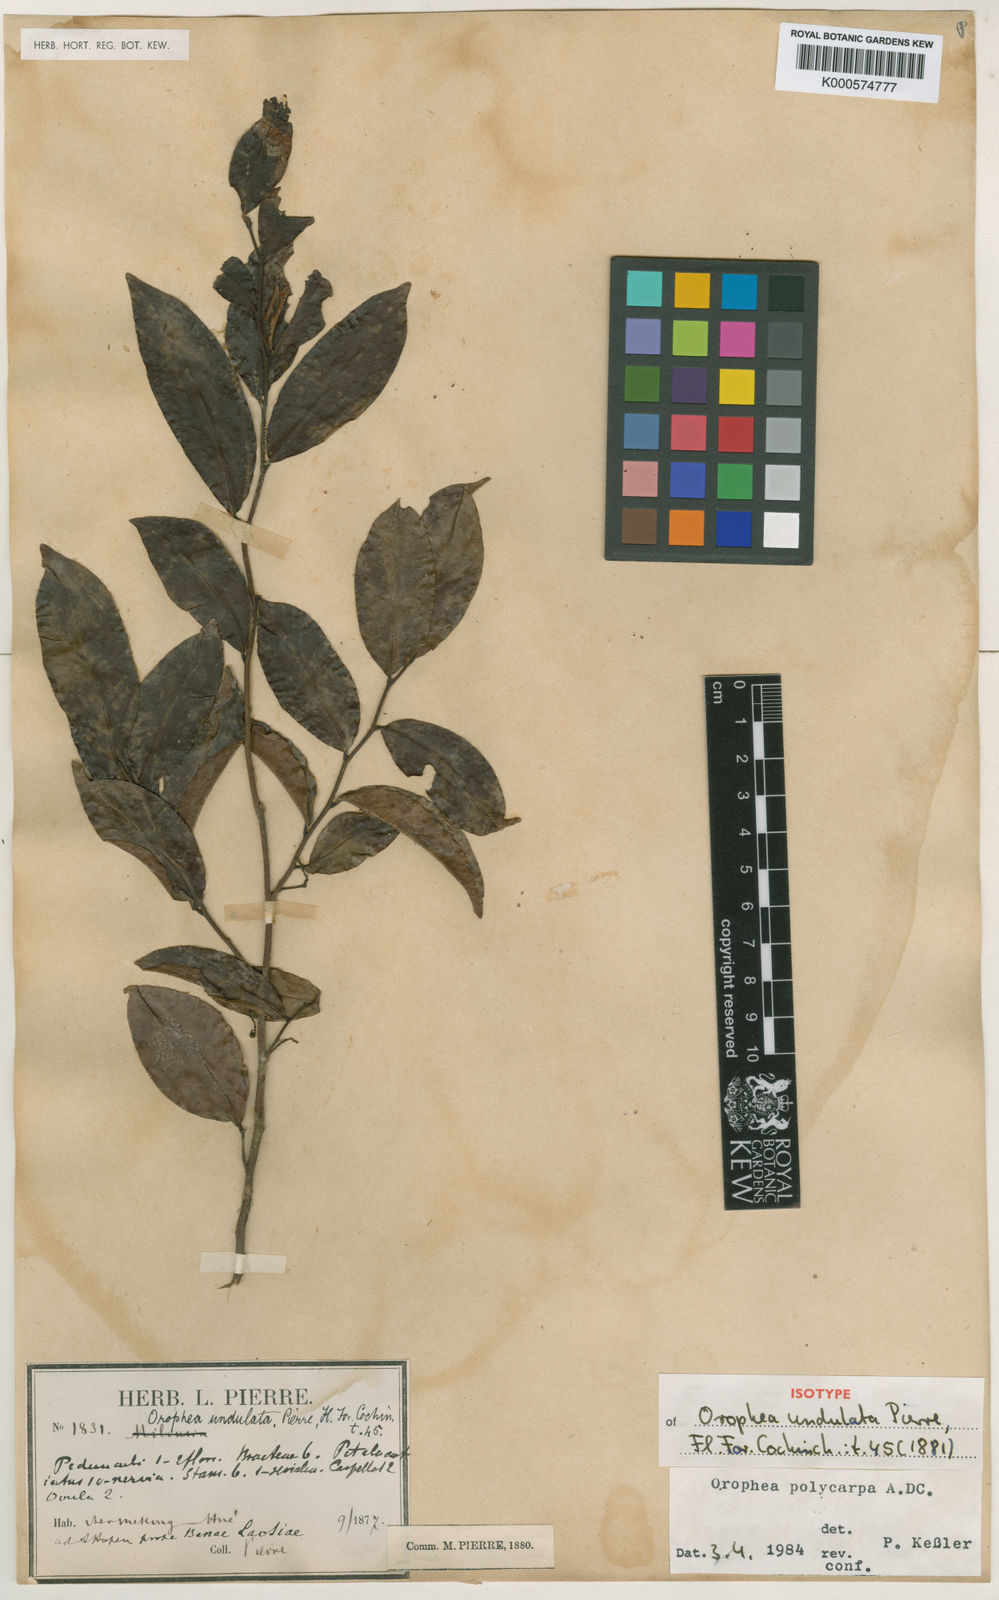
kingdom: Plantae
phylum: Tracheophyta
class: Magnoliopsida
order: Magnoliales
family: Annonaceae
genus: Orophea
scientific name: Orophea polycarpa
